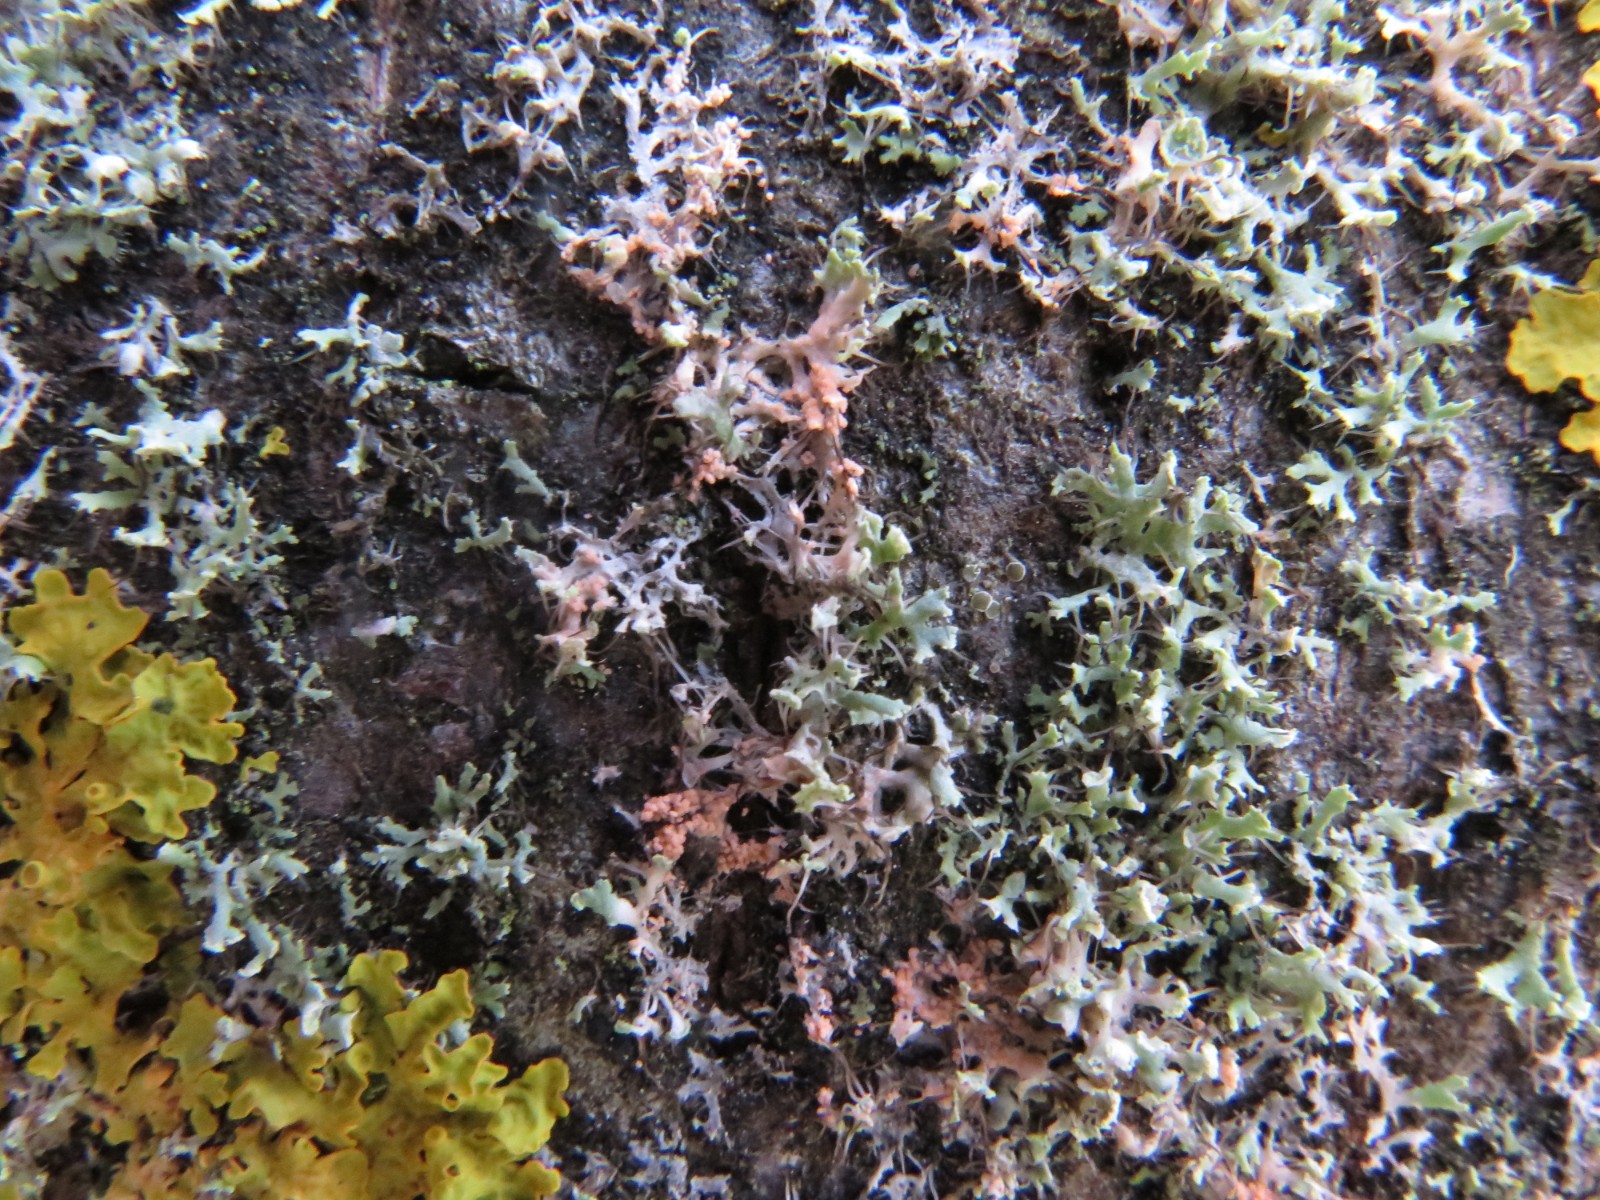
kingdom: Fungi
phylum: Basidiomycota
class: Agaricomycetes
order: Corticiales
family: Corticiaceae
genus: Erythricium
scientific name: Erythricium aurantiacum
